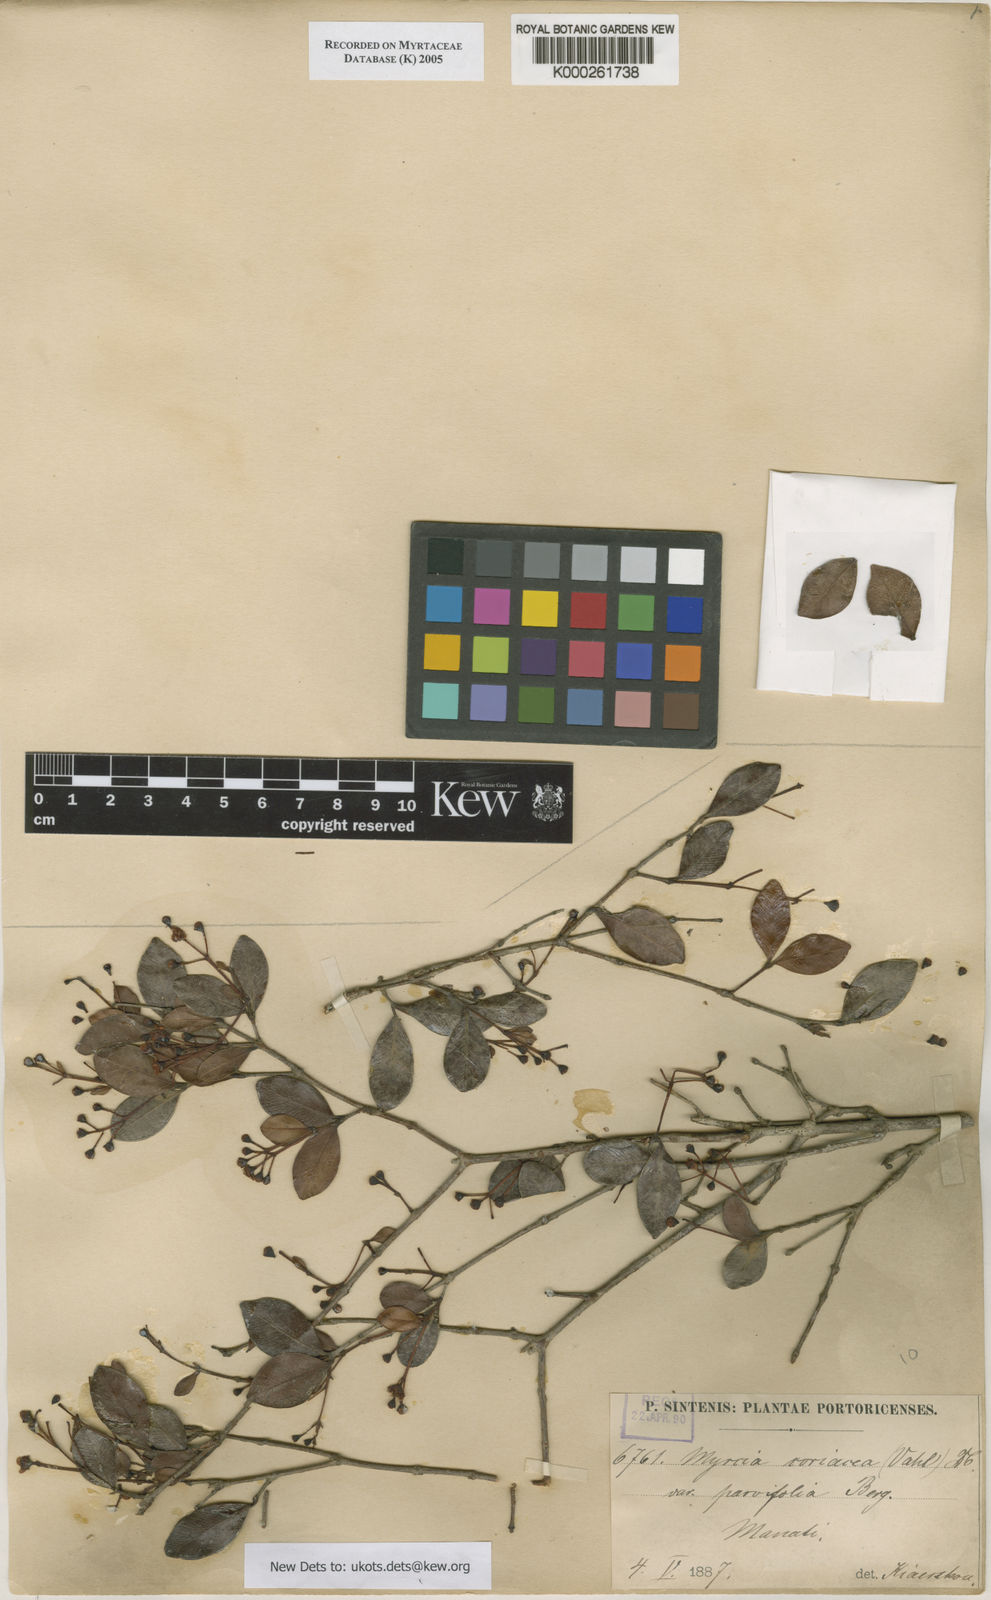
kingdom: Plantae
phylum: Tracheophyta
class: Magnoliopsida
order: Myrtales
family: Myrtaceae
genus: Myrcia
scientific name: Myrcia guianensis
